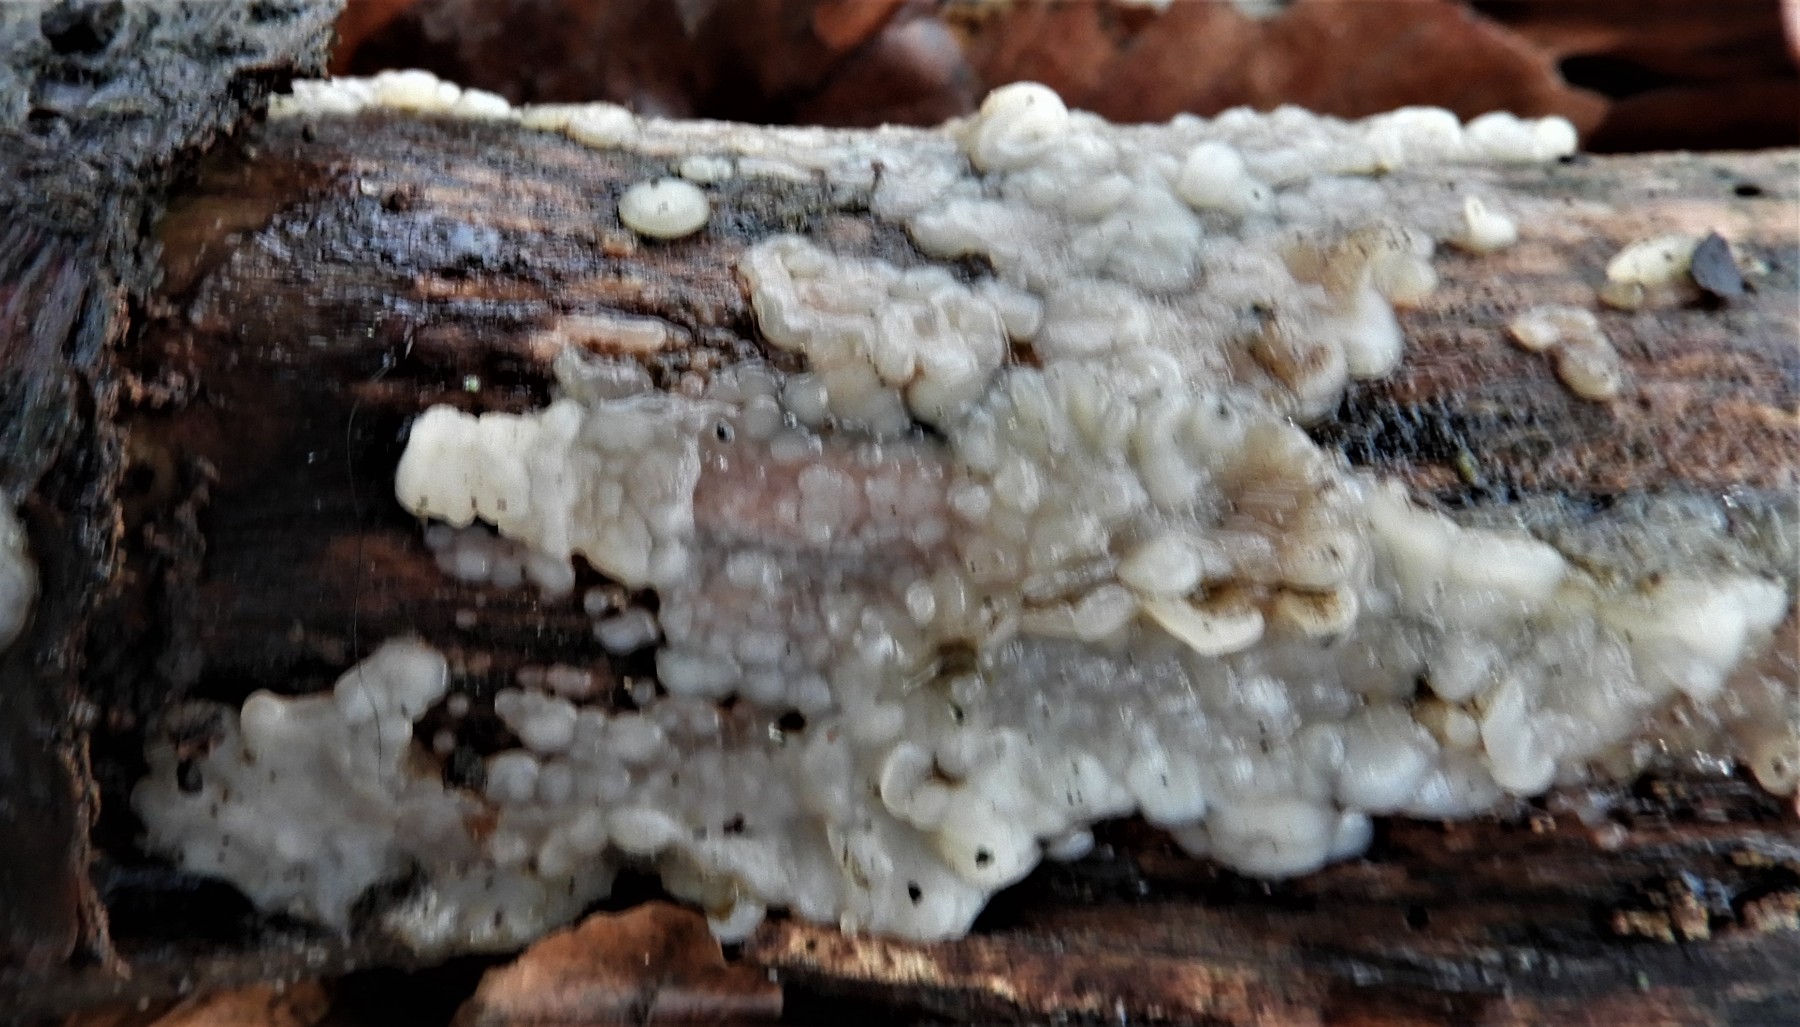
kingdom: Fungi
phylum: Basidiomycota
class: Agaricomycetes
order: Auriculariales
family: Auriculariaceae
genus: Exidia
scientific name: Exidia thuretiana
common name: hvidlig bævretop
